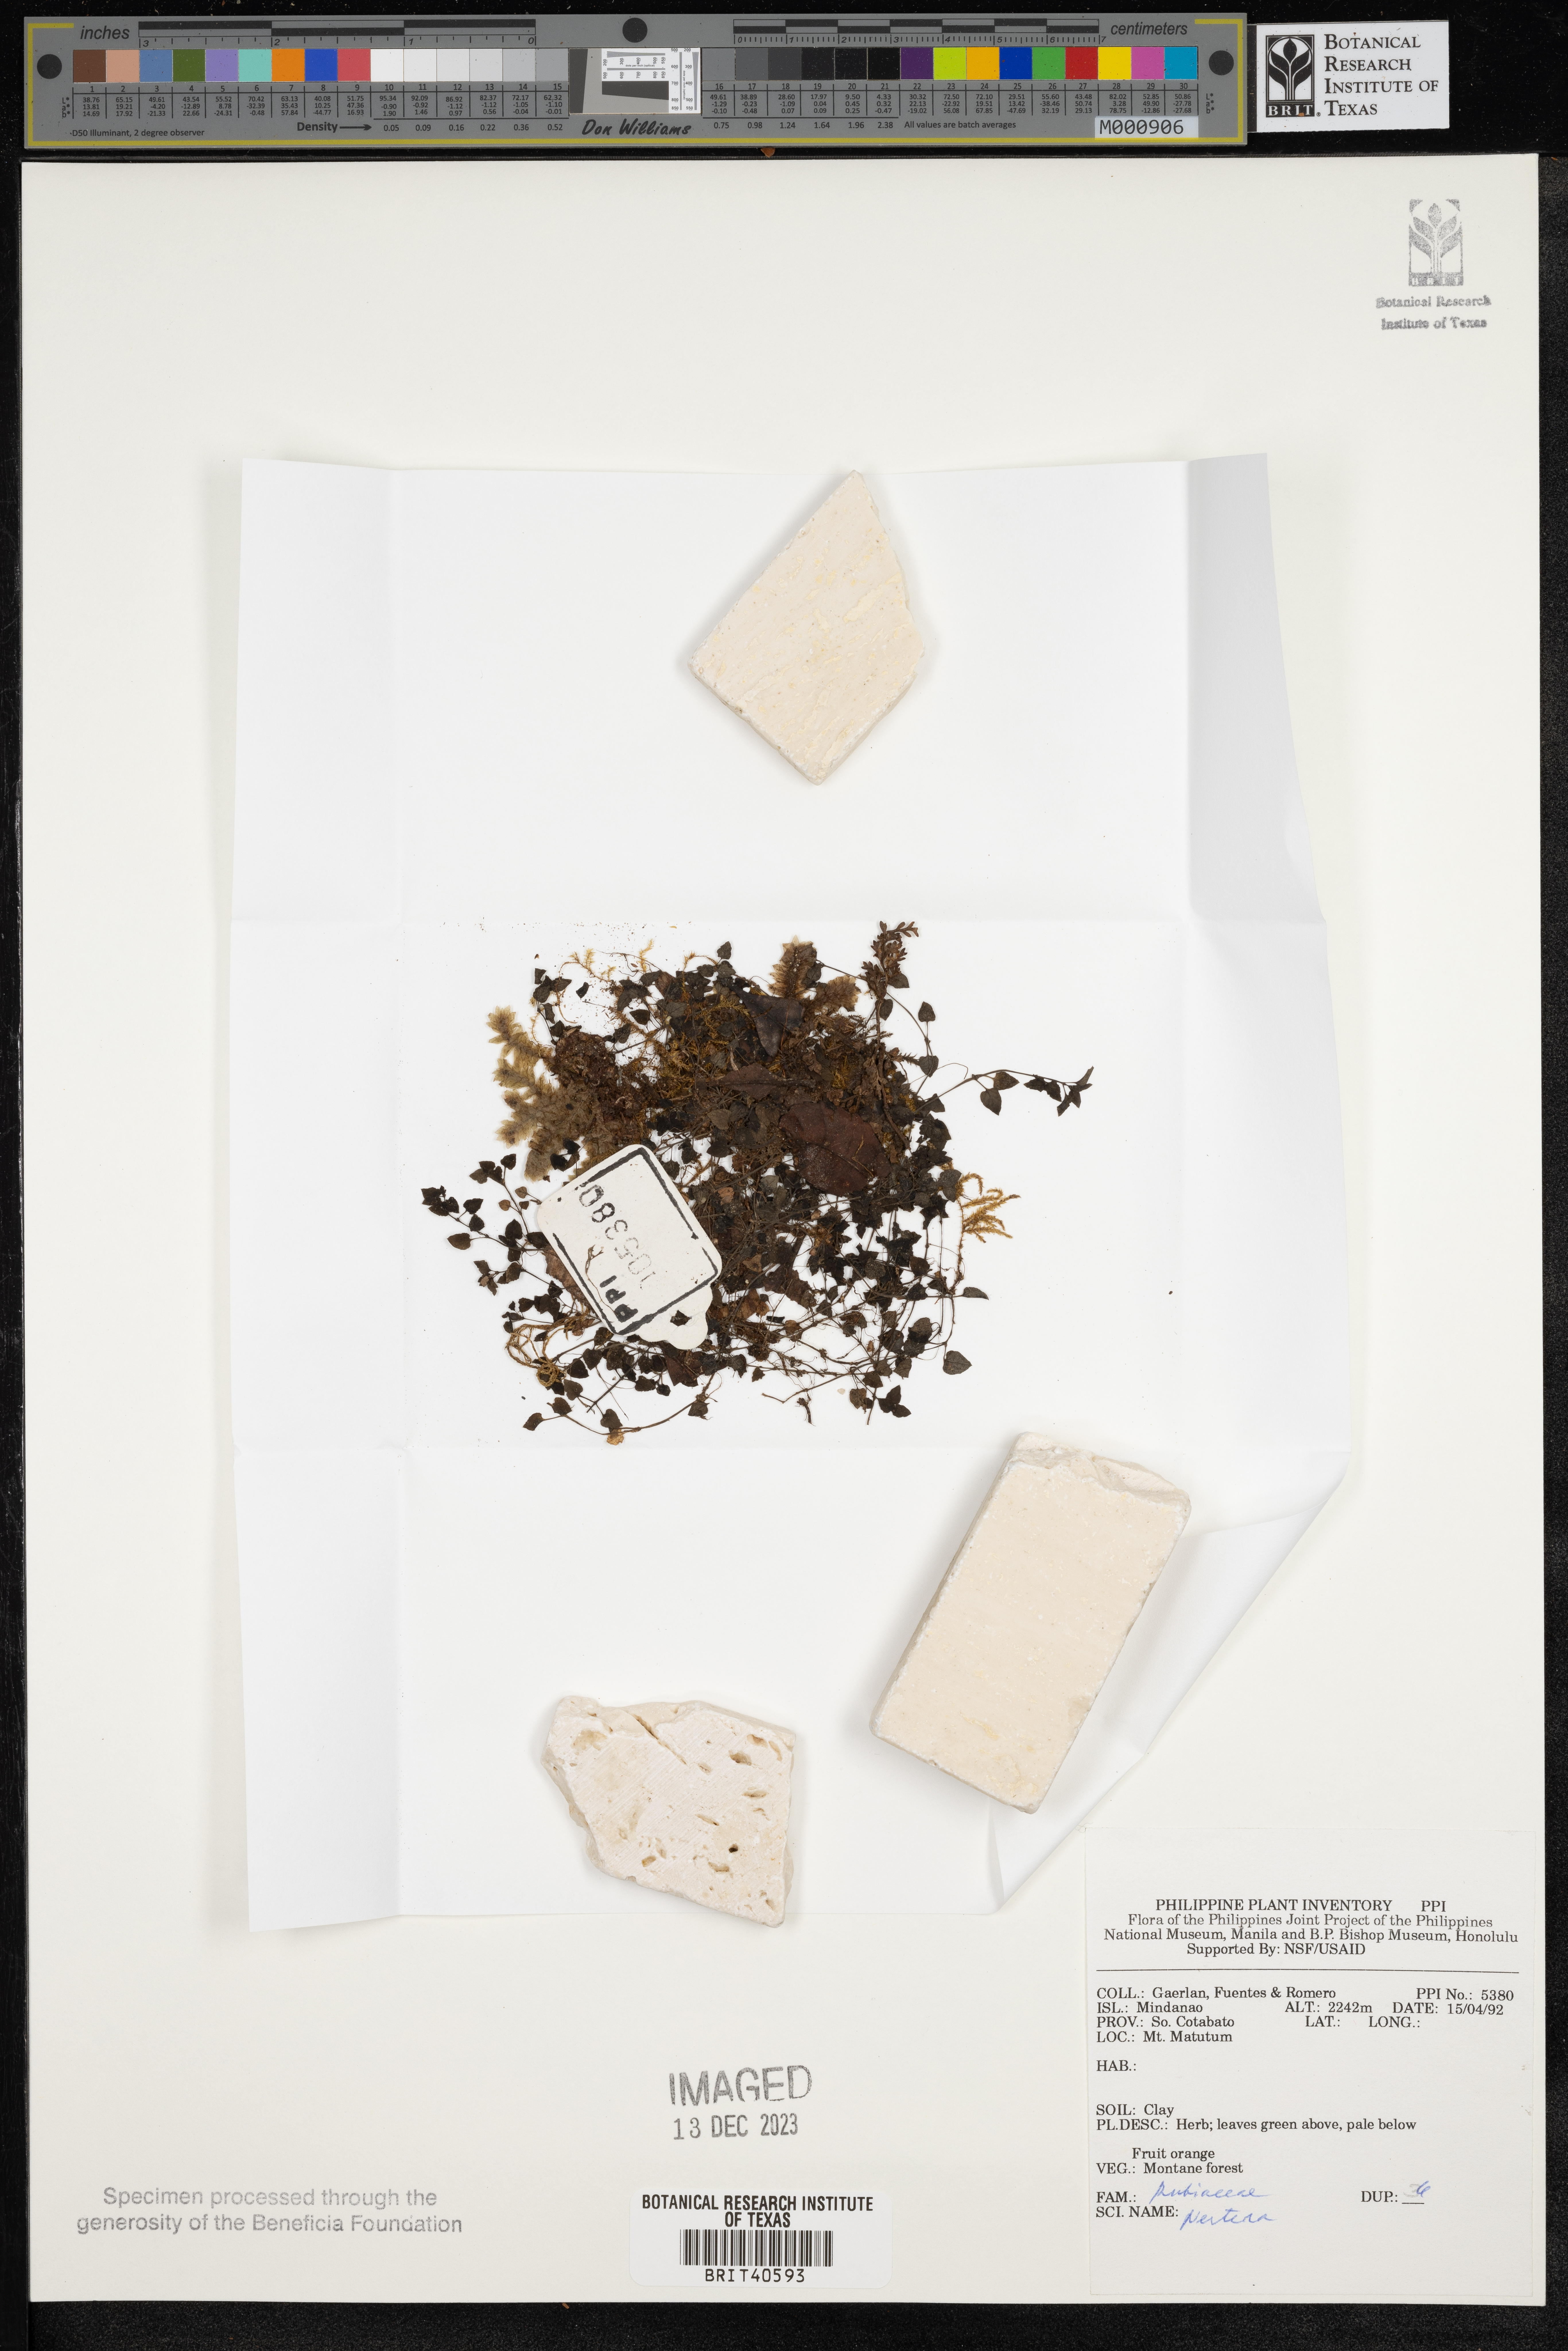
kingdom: Plantae
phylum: Tracheophyta
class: Magnoliopsida
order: Gentianales
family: Rubiaceae
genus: Nertera
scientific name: Nertera
